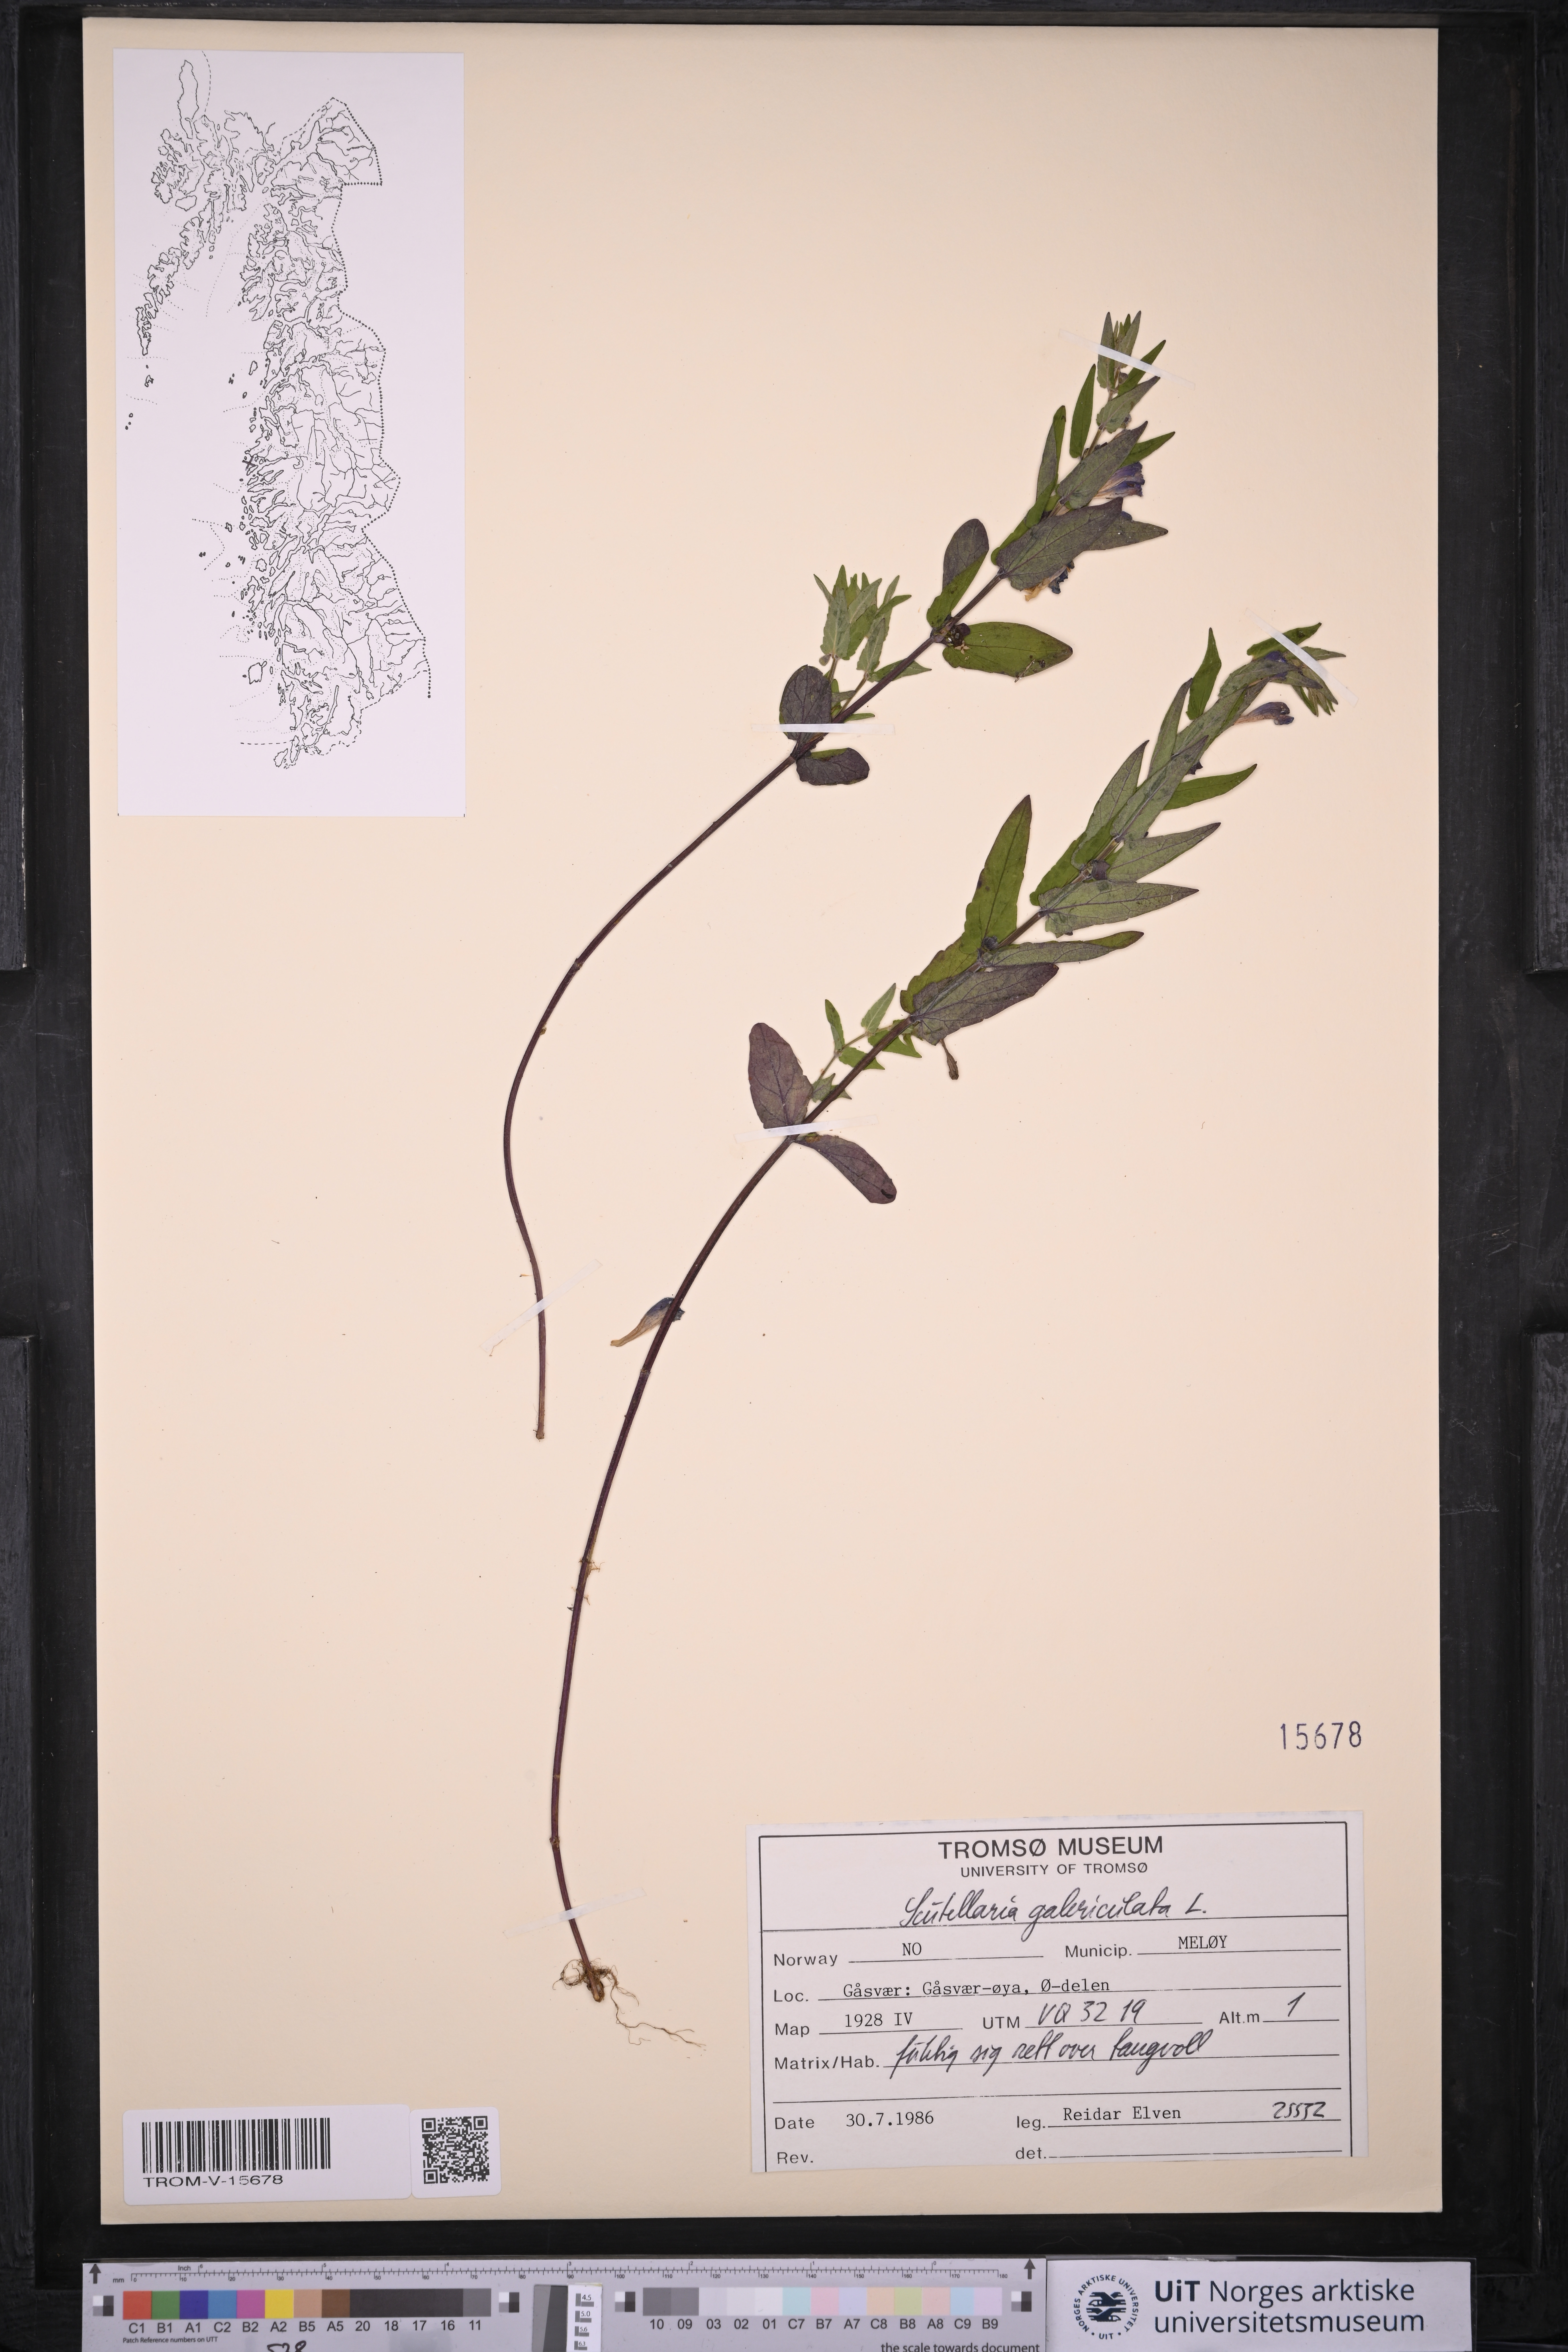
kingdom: Plantae
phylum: Tracheophyta
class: Magnoliopsida
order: Lamiales
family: Lamiaceae
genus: Scutellaria
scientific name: Scutellaria galericulata
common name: Skullcap
